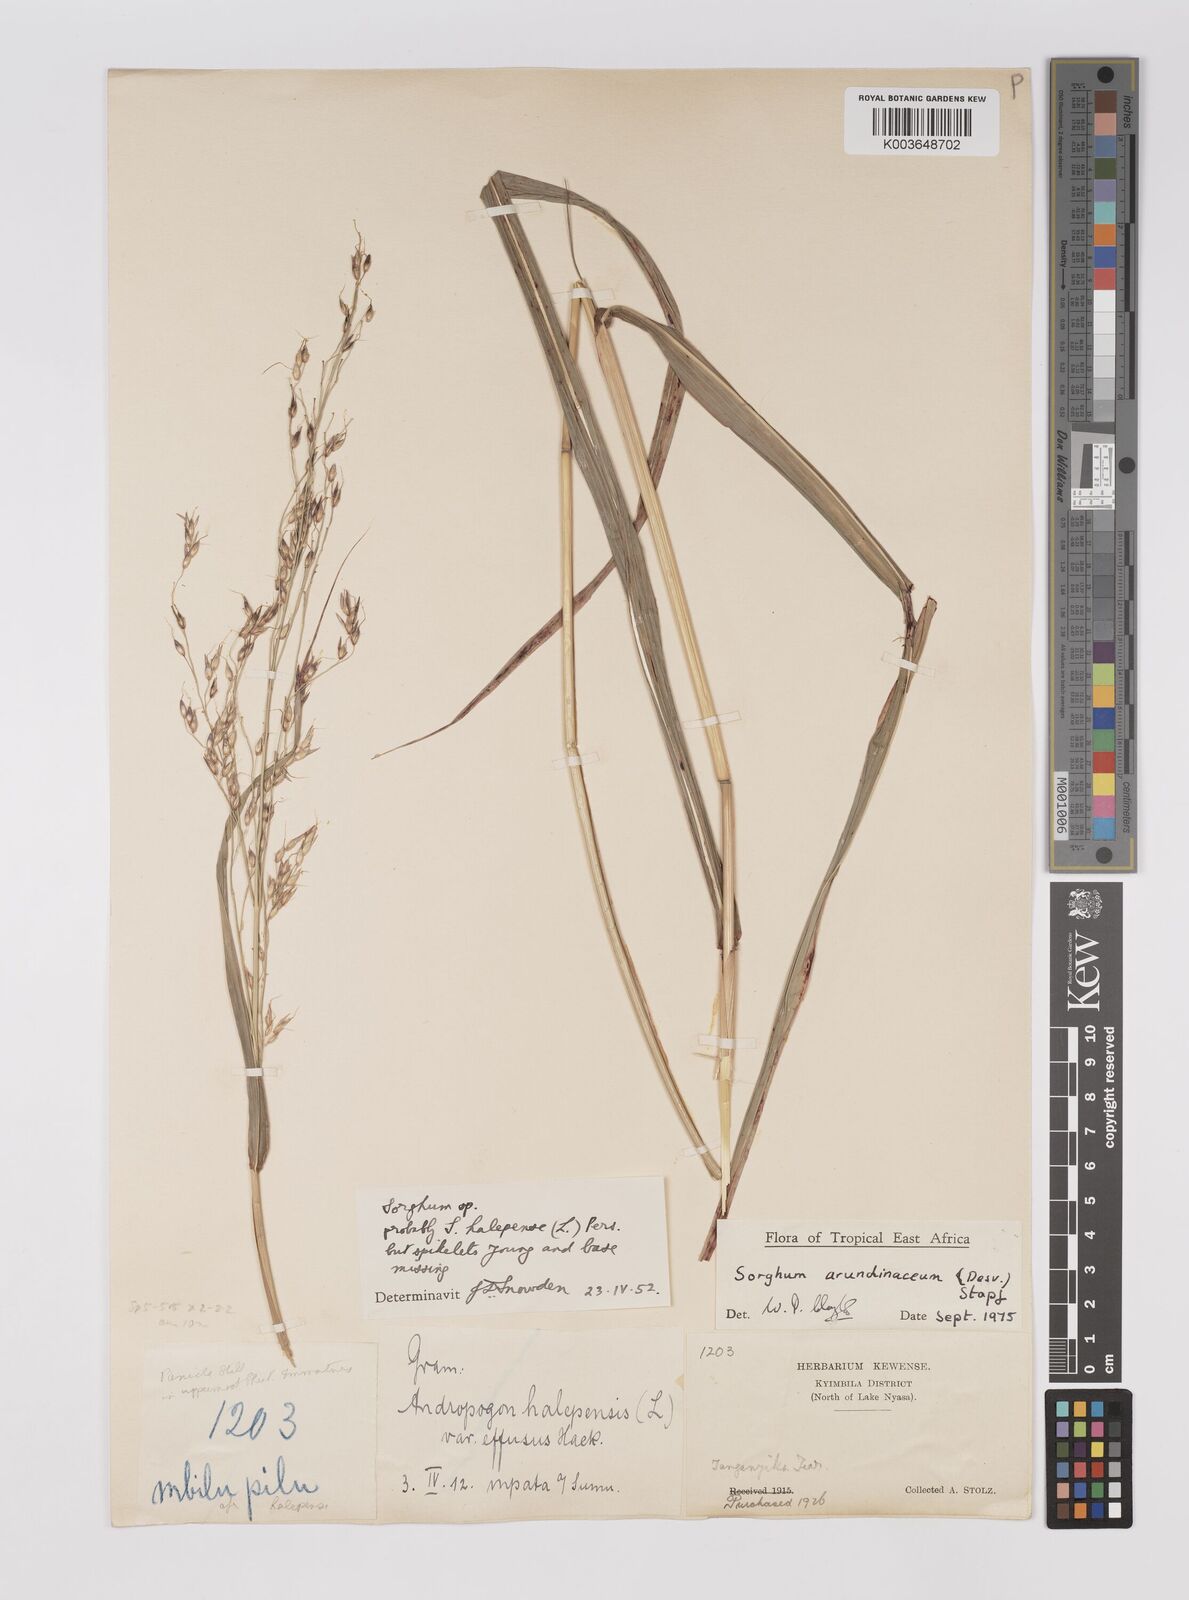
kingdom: Plantae
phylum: Tracheophyta
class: Liliopsida
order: Poales
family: Poaceae
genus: Sorghum
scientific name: Sorghum arundinaceum
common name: Sorghum
